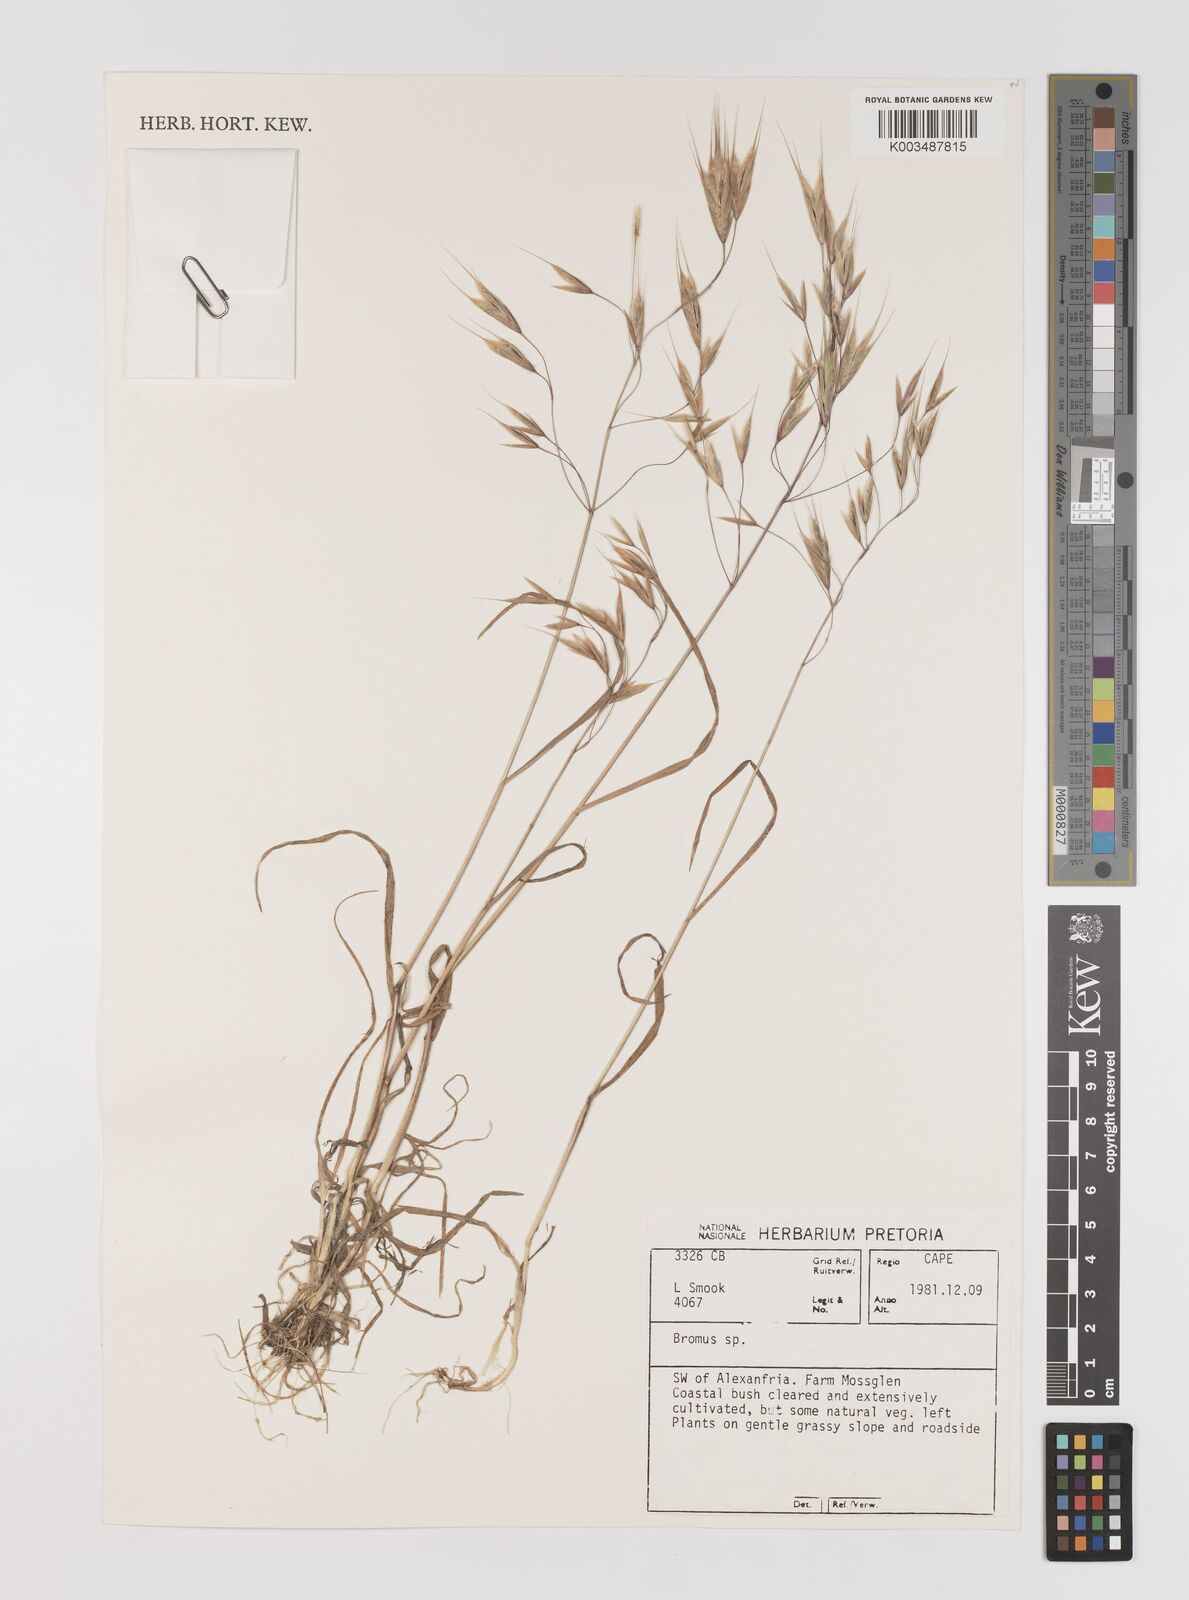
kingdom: Plantae
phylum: Tracheophyta
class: Liliopsida
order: Poales
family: Poaceae
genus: Bromus
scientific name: Bromus
